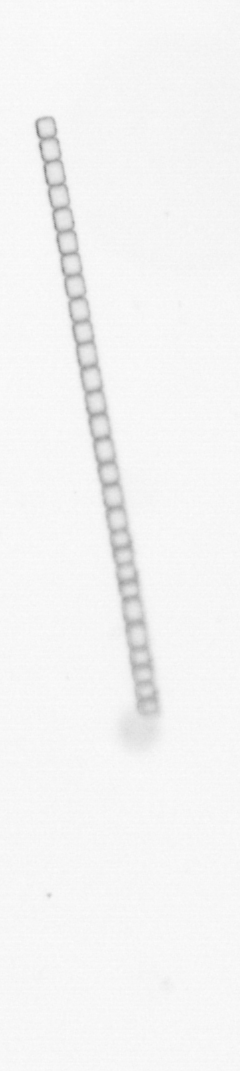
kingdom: Chromista
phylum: Ochrophyta
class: Bacillariophyceae
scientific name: Bacillariophyceae
